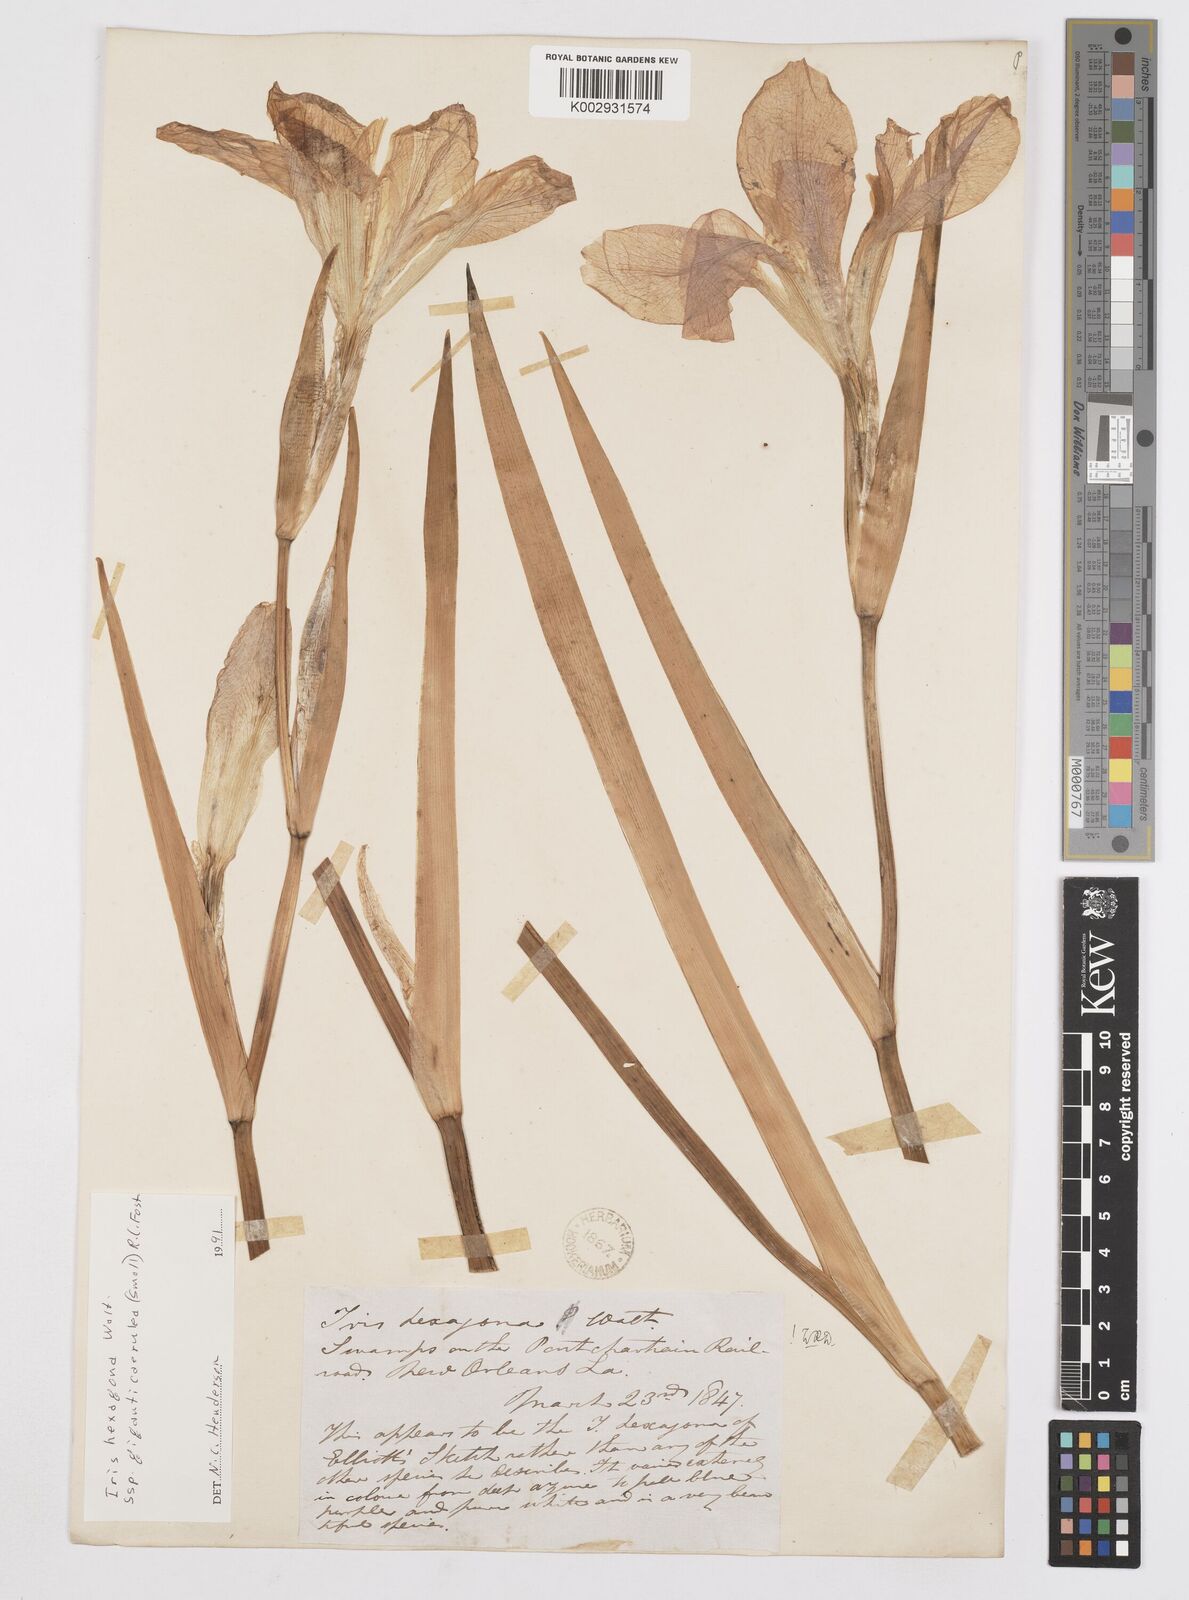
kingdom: Plantae
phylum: Tracheophyta
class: Liliopsida
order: Asparagales
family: Iridaceae
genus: Iris
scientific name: Iris hexagona
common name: Carolina iris
